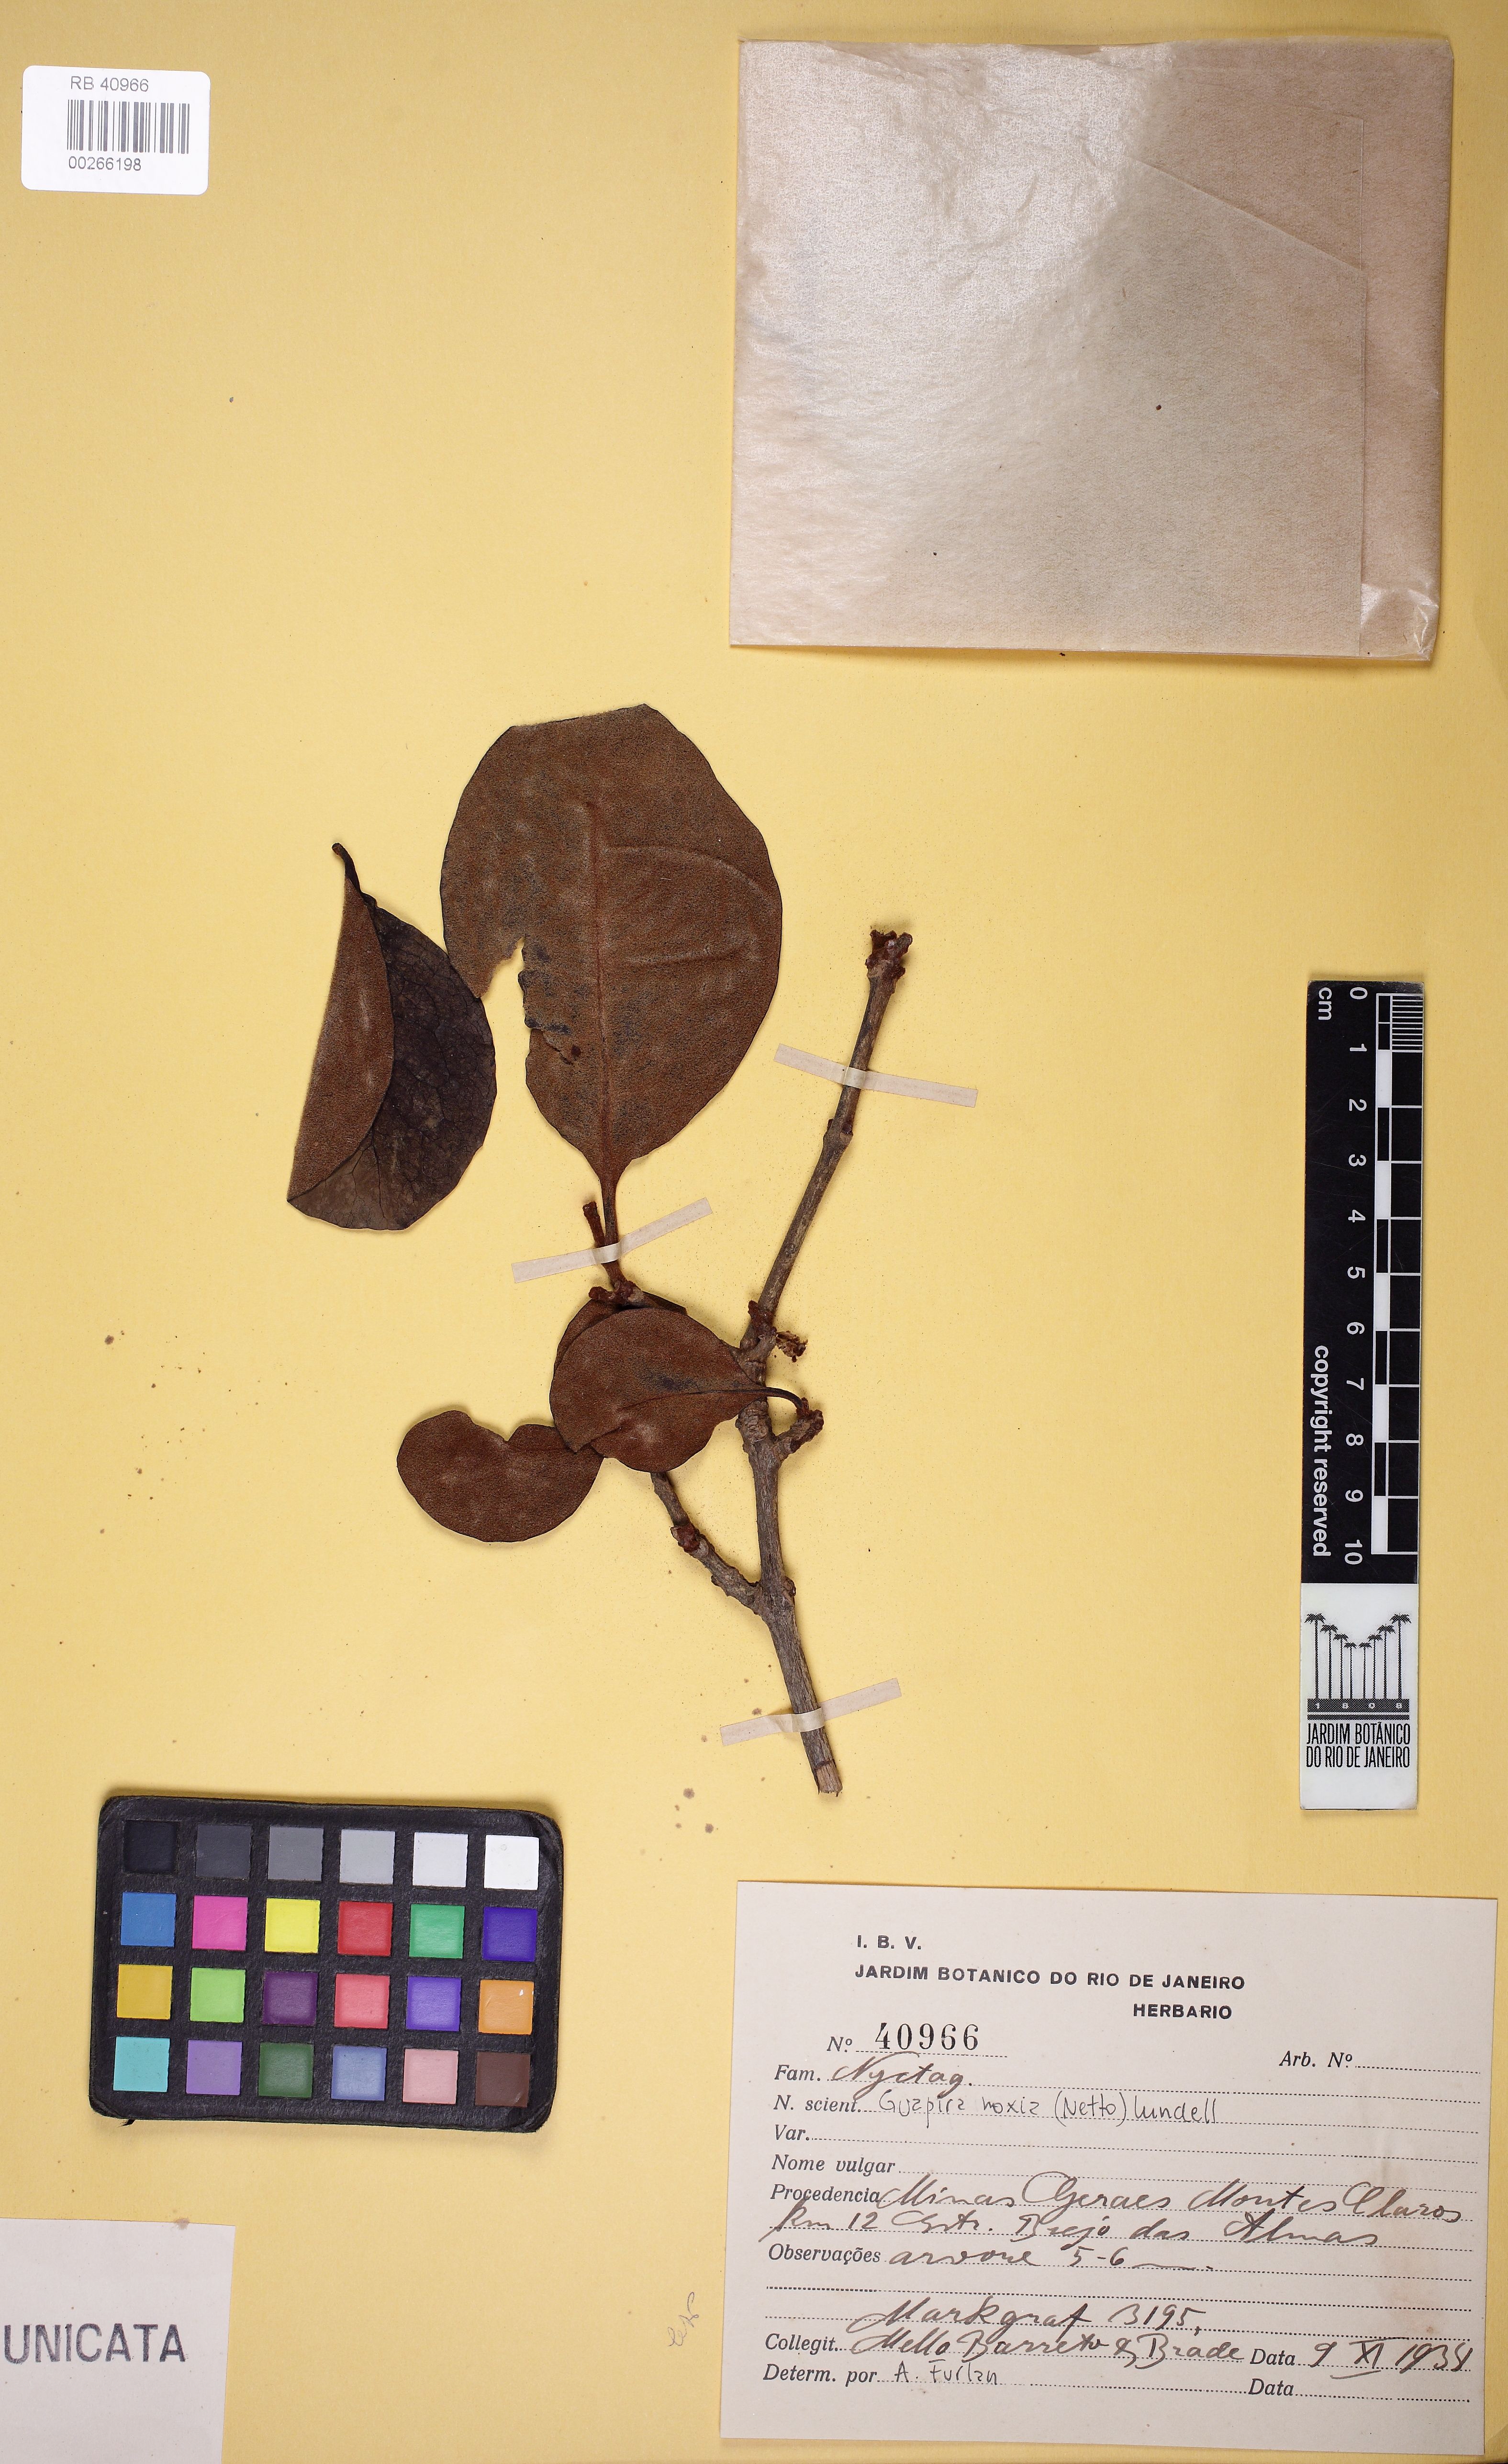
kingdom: Plantae
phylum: Tracheophyta
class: Magnoliopsida
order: Caryophyllales
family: Nyctaginaceae
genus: Guapira
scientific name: Guapira noxia
